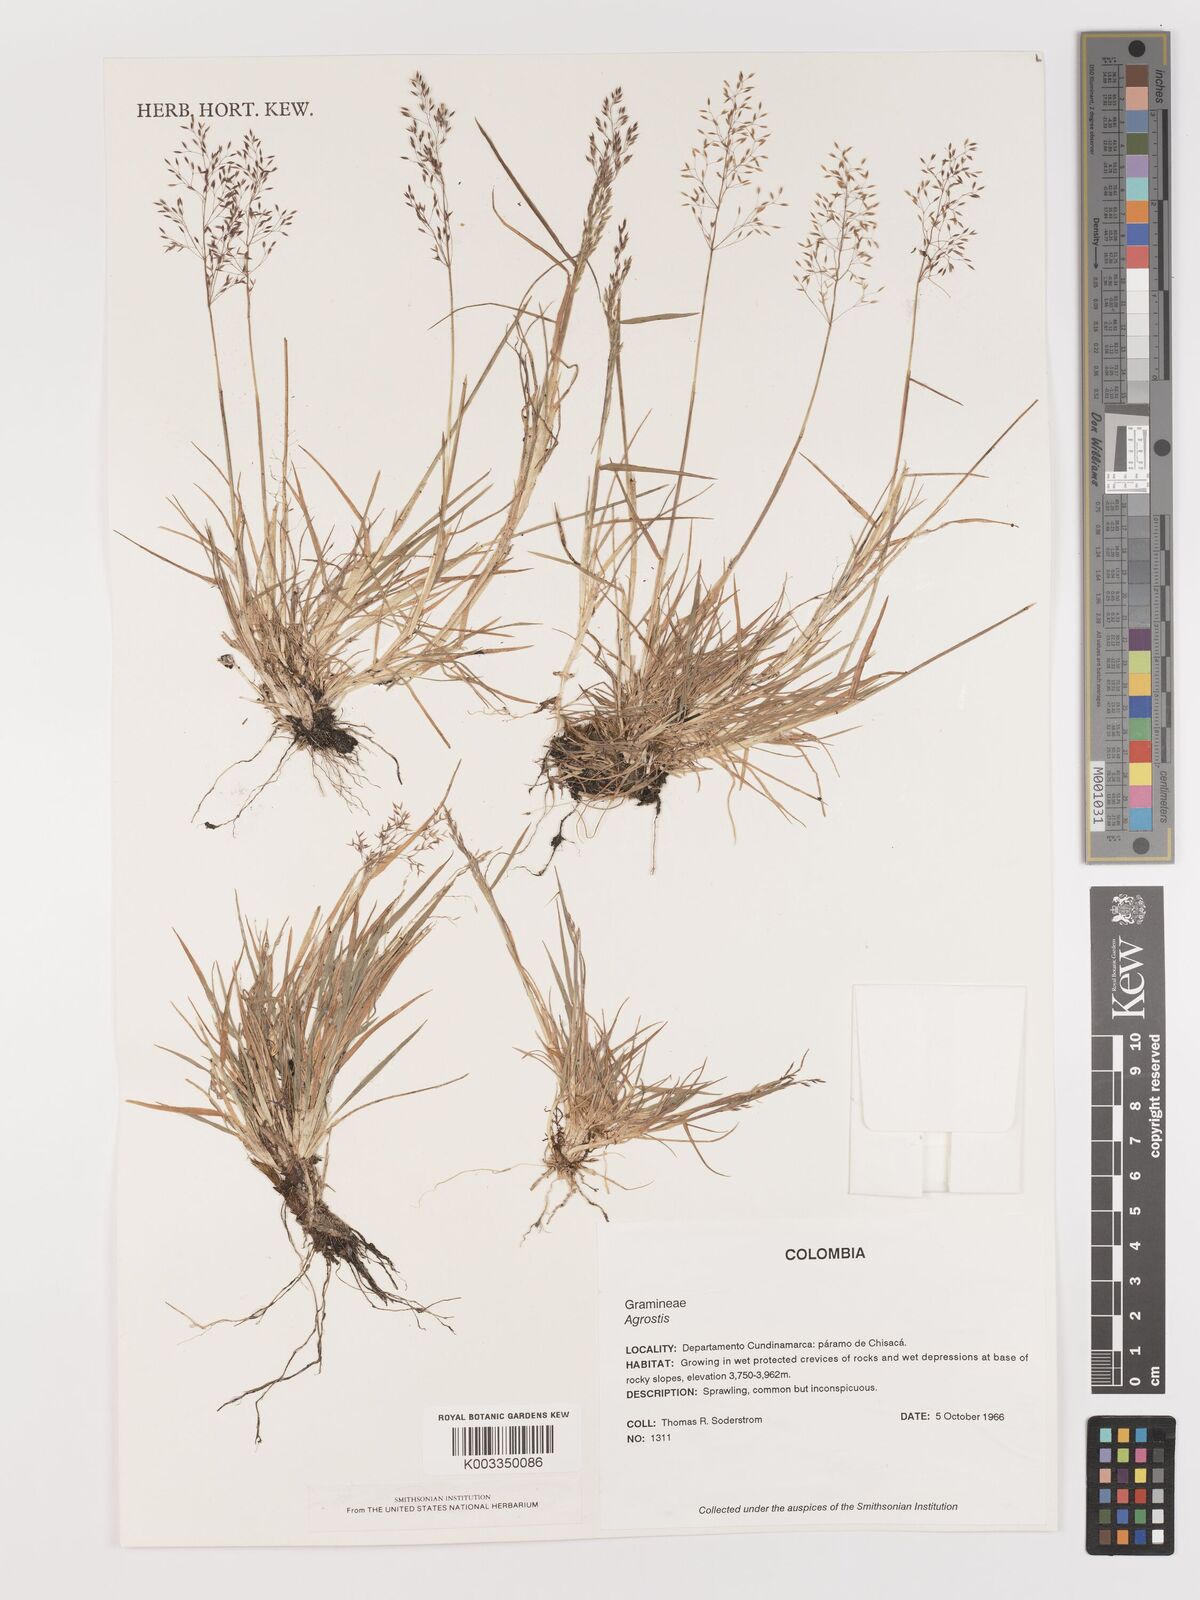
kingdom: Plantae
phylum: Tracheophyta
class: Liliopsida
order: Poales
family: Poaceae
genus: Agrostis
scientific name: Agrostis
